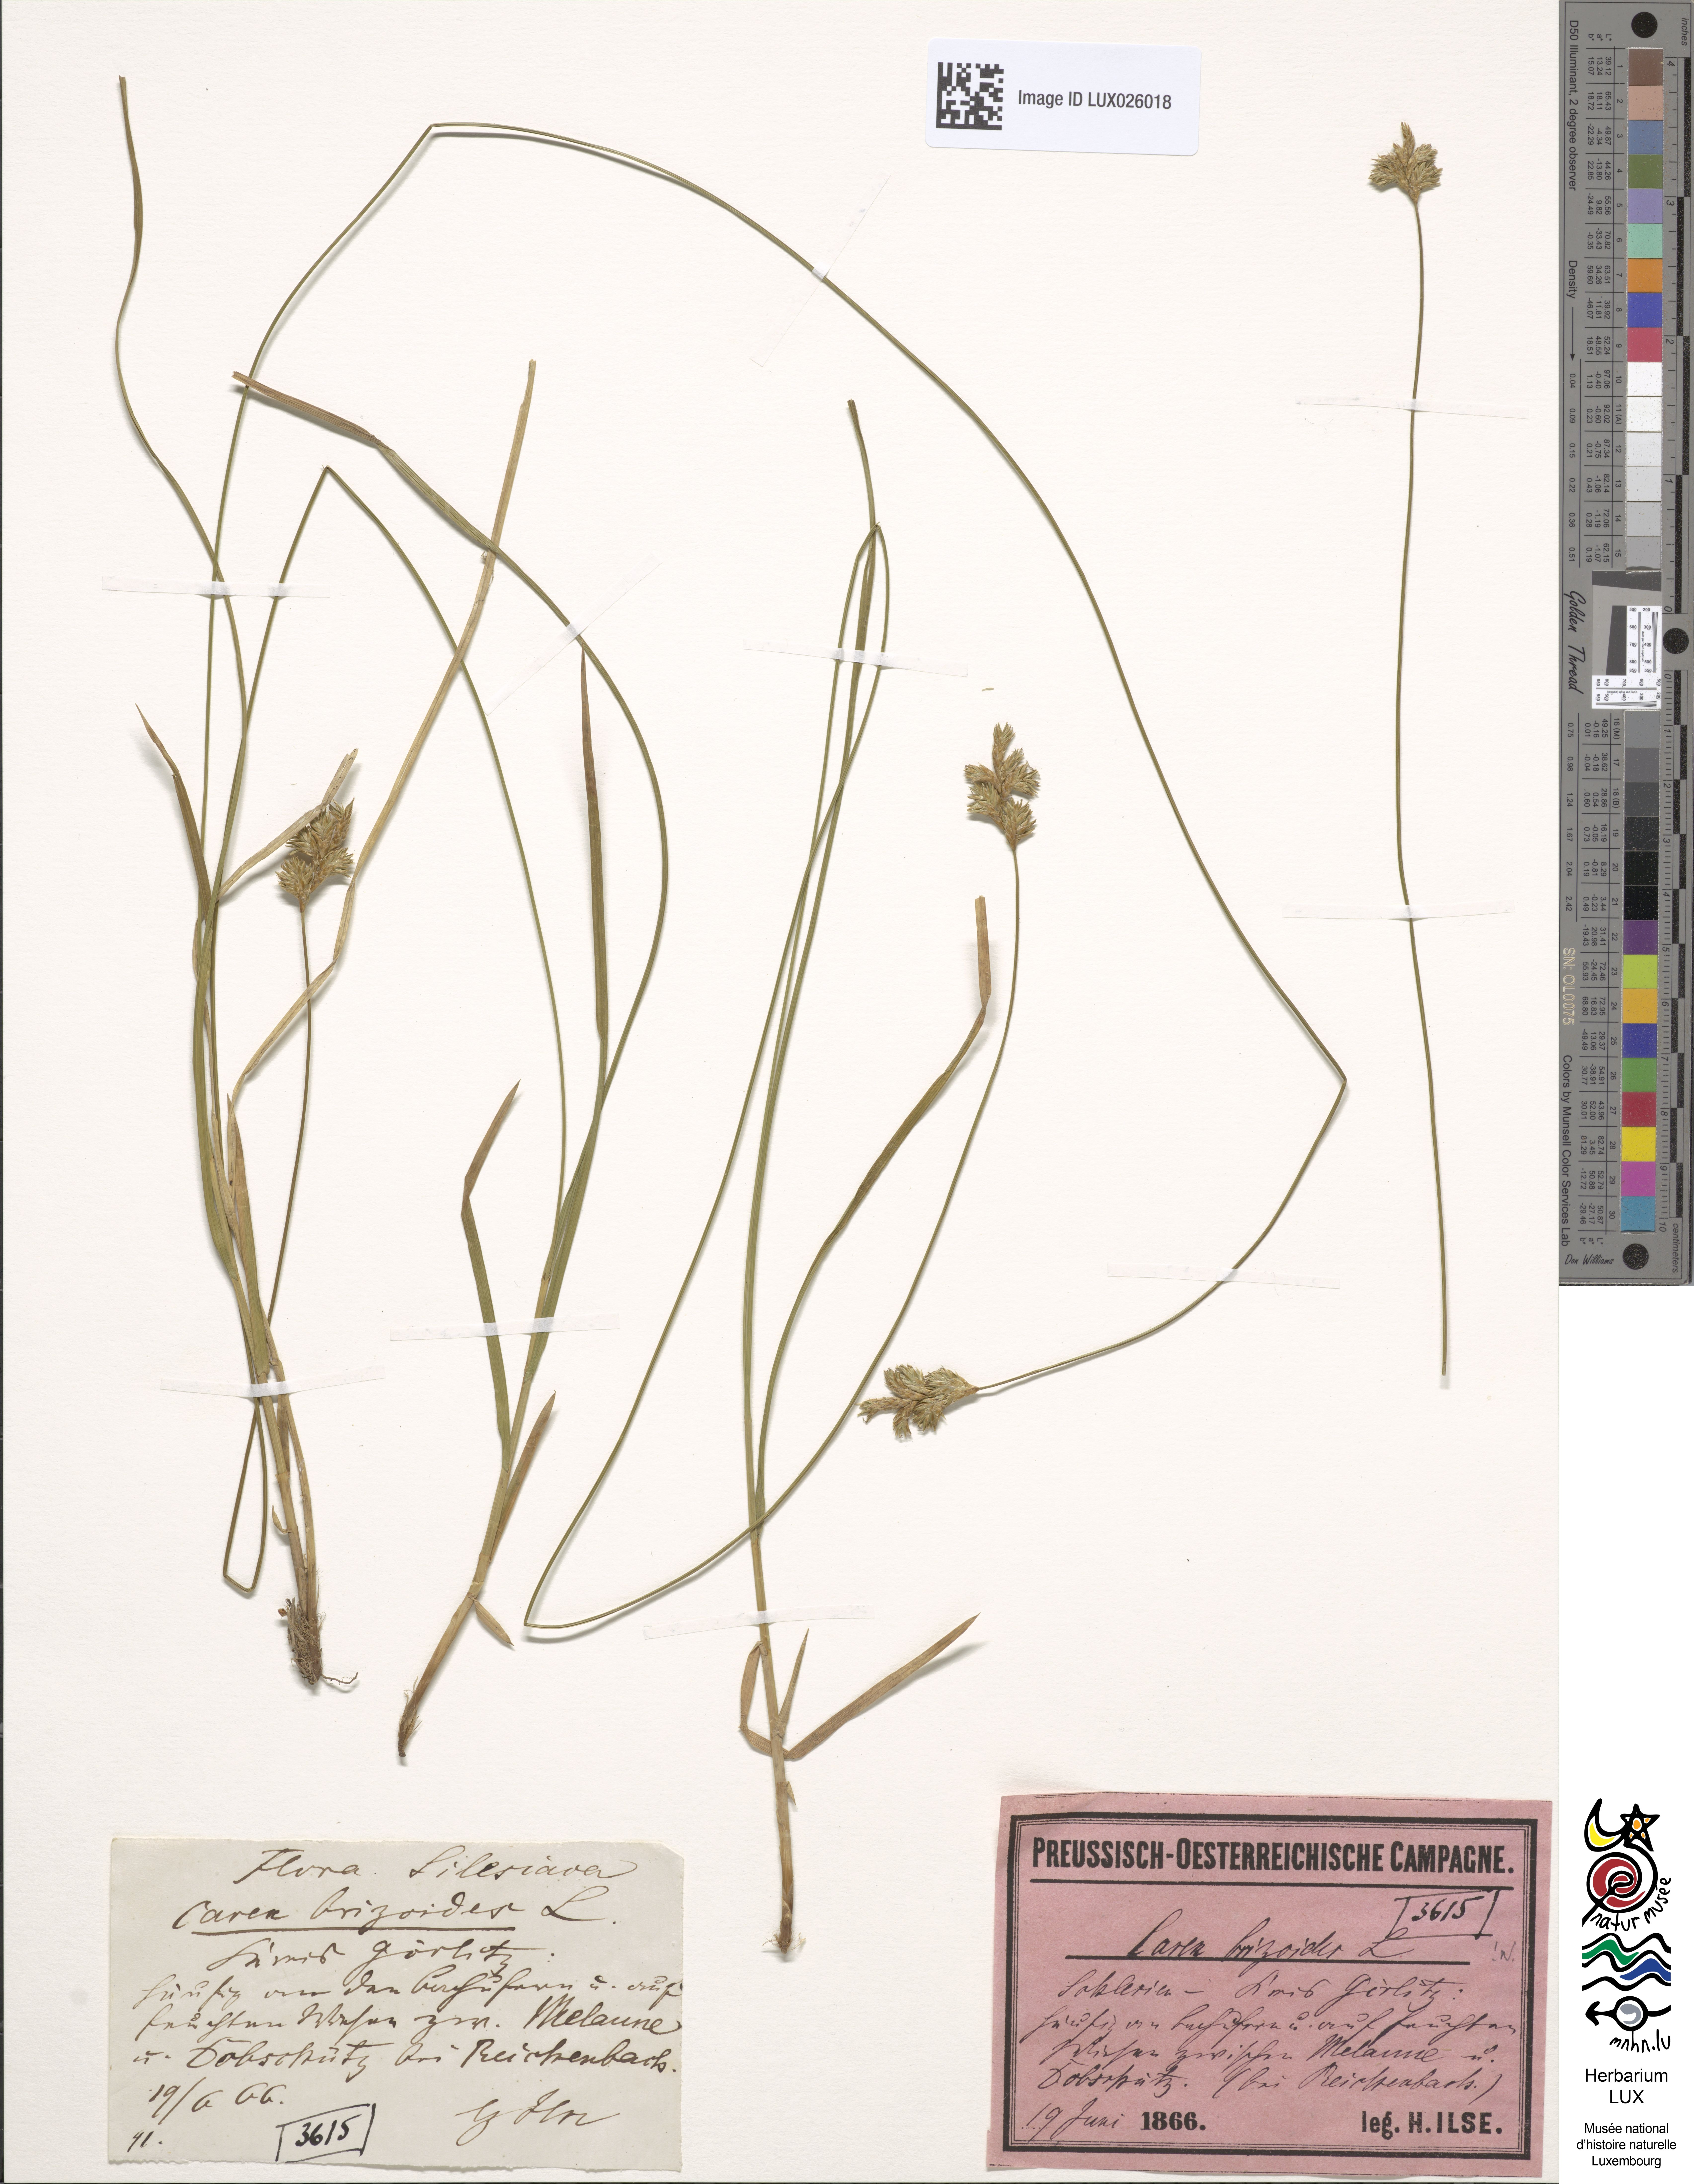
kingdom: Plantae
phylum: Tracheophyta
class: Liliopsida
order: Poales
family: Cyperaceae
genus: Carex
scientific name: Carex brizoides
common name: Quaking-grass sedge
